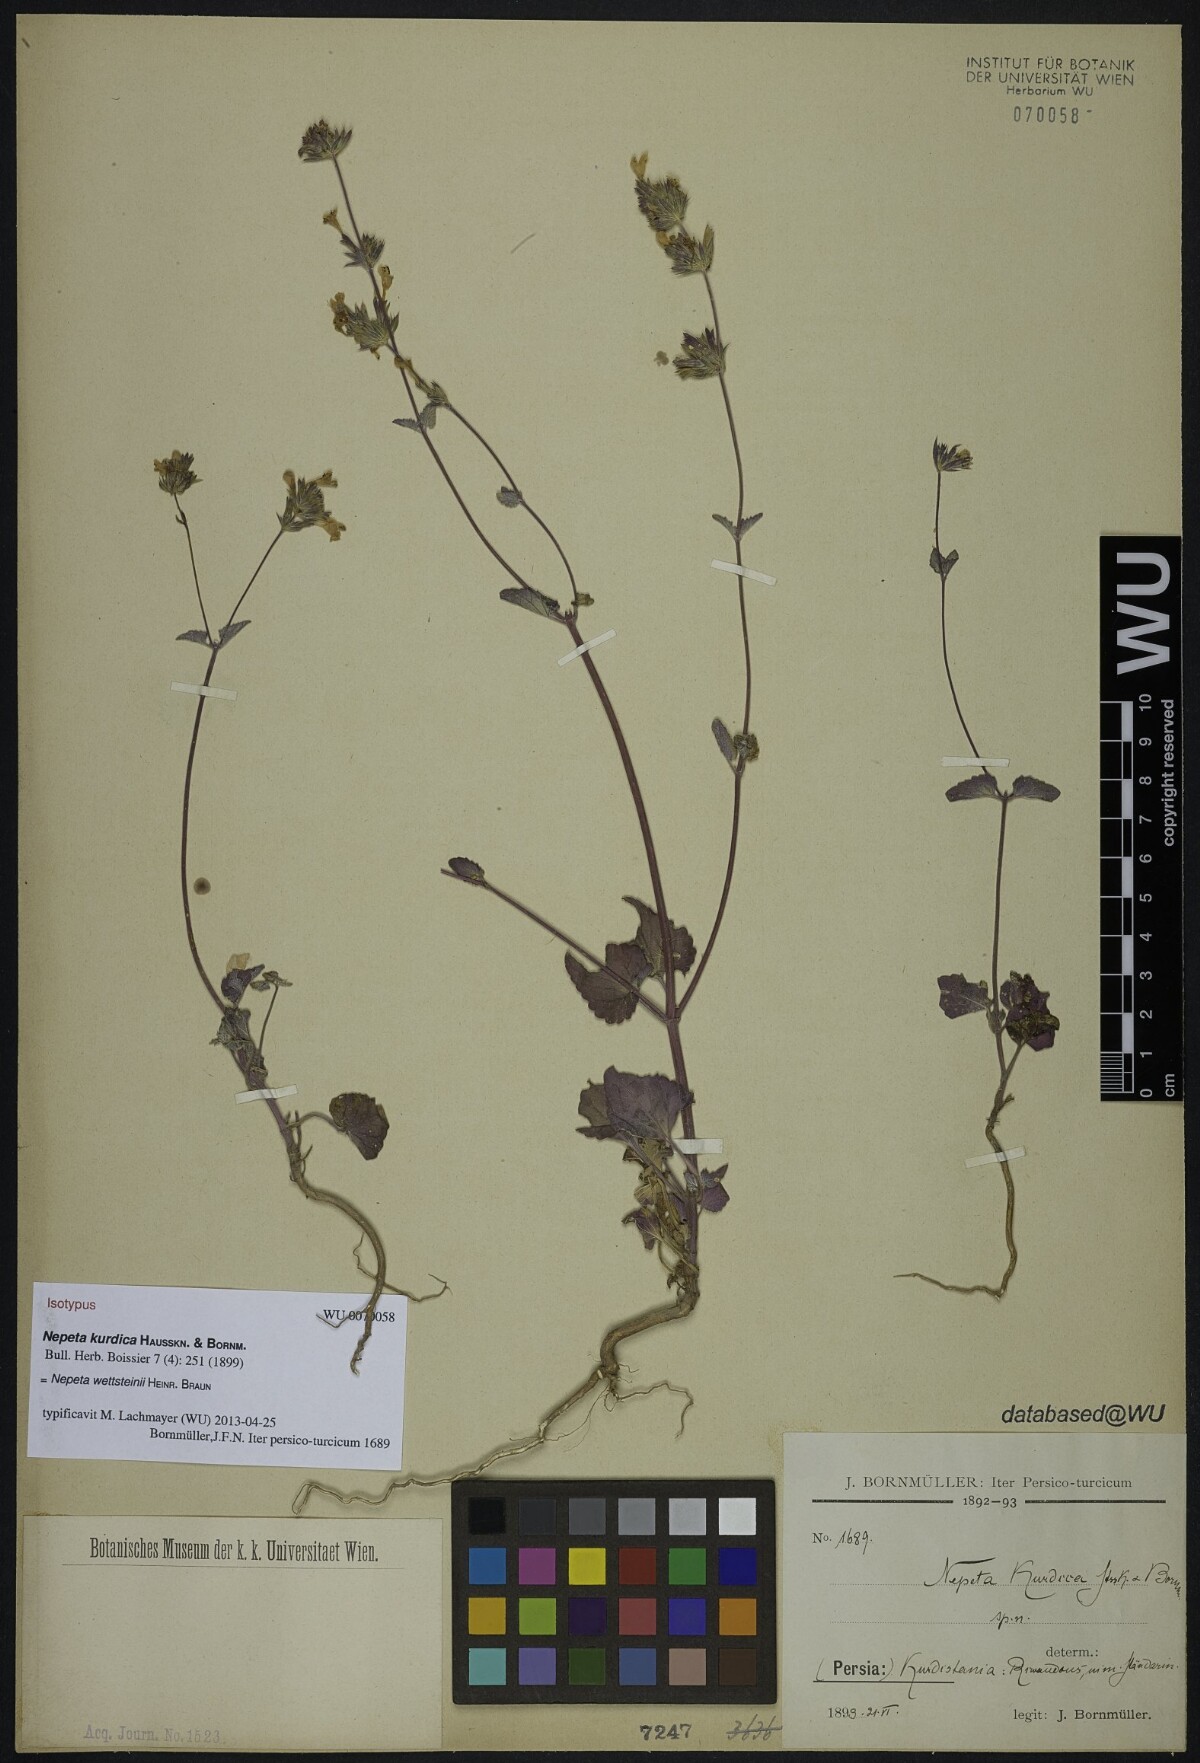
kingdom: Plantae
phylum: Tracheophyta
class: Magnoliopsida
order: Lamiales
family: Lamiaceae
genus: Nepeta
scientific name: Nepeta kurdica
